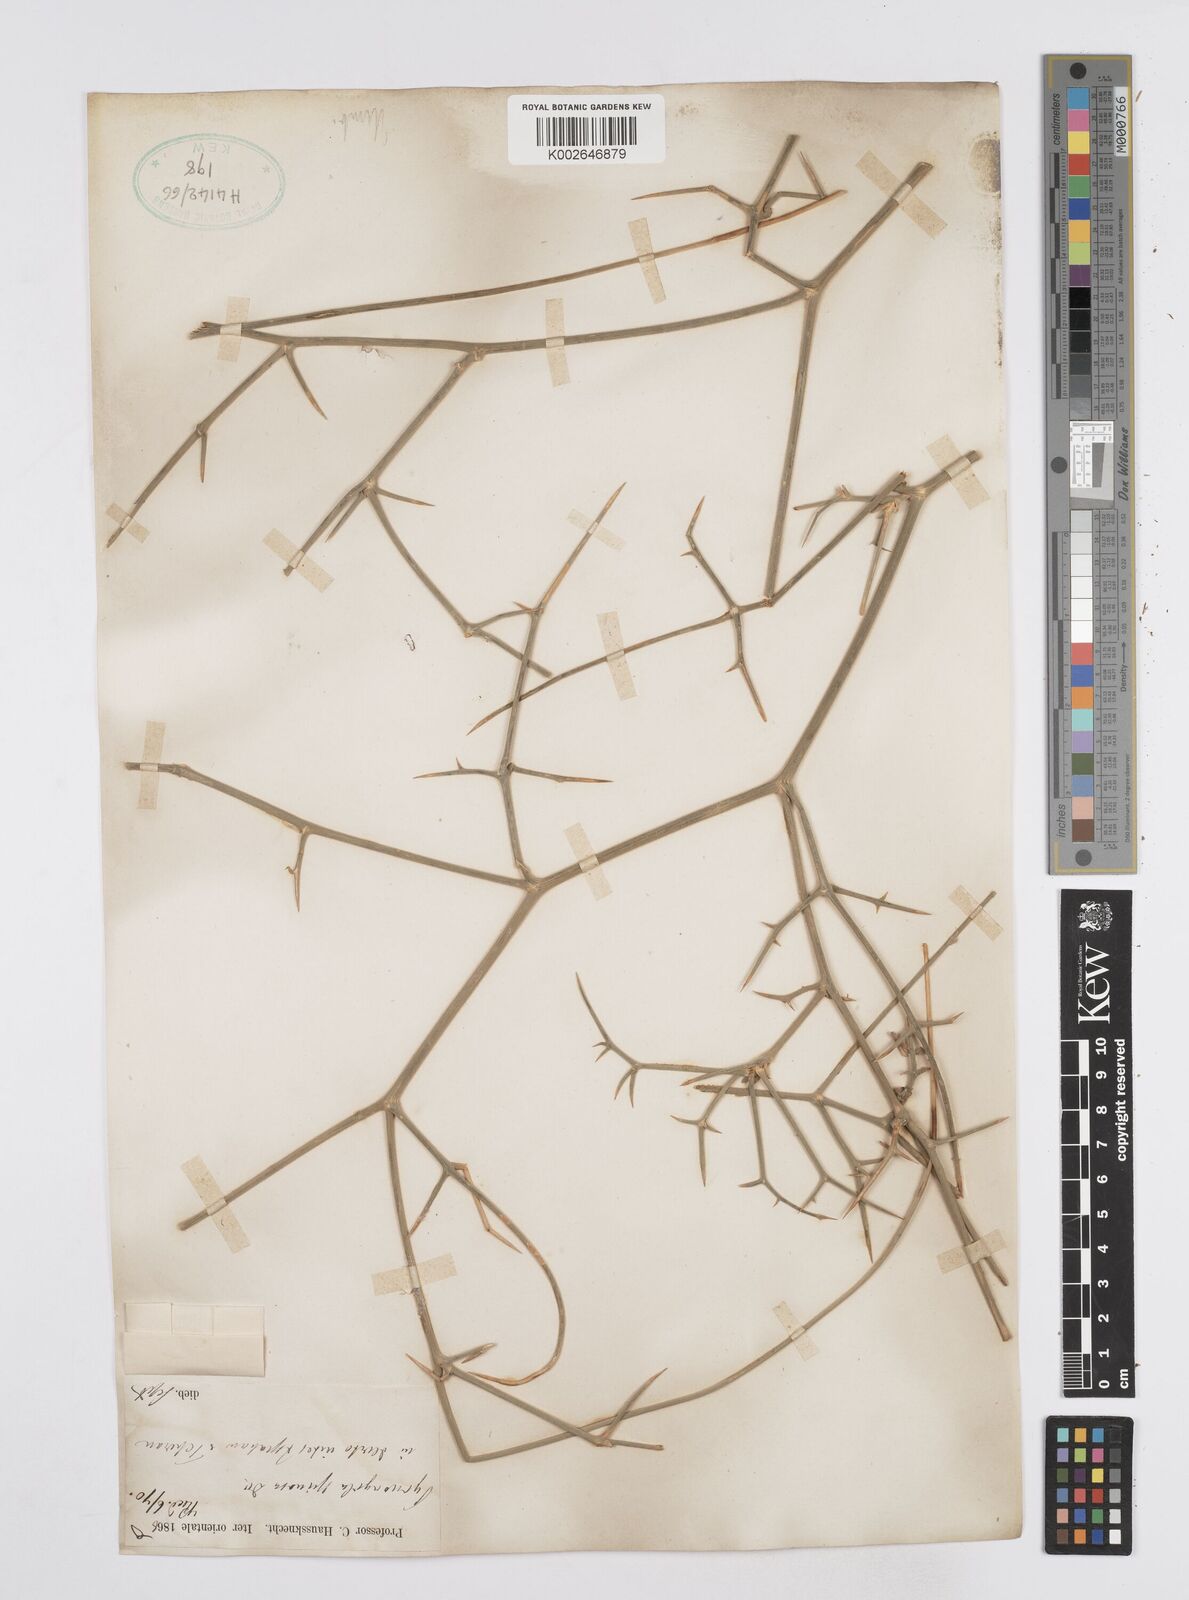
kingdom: Plantae
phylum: Tracheophyta
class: Magnoliopsida
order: Apiales
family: Apiaceae
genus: Pycnocycla
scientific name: Pycnocycla spinosa
